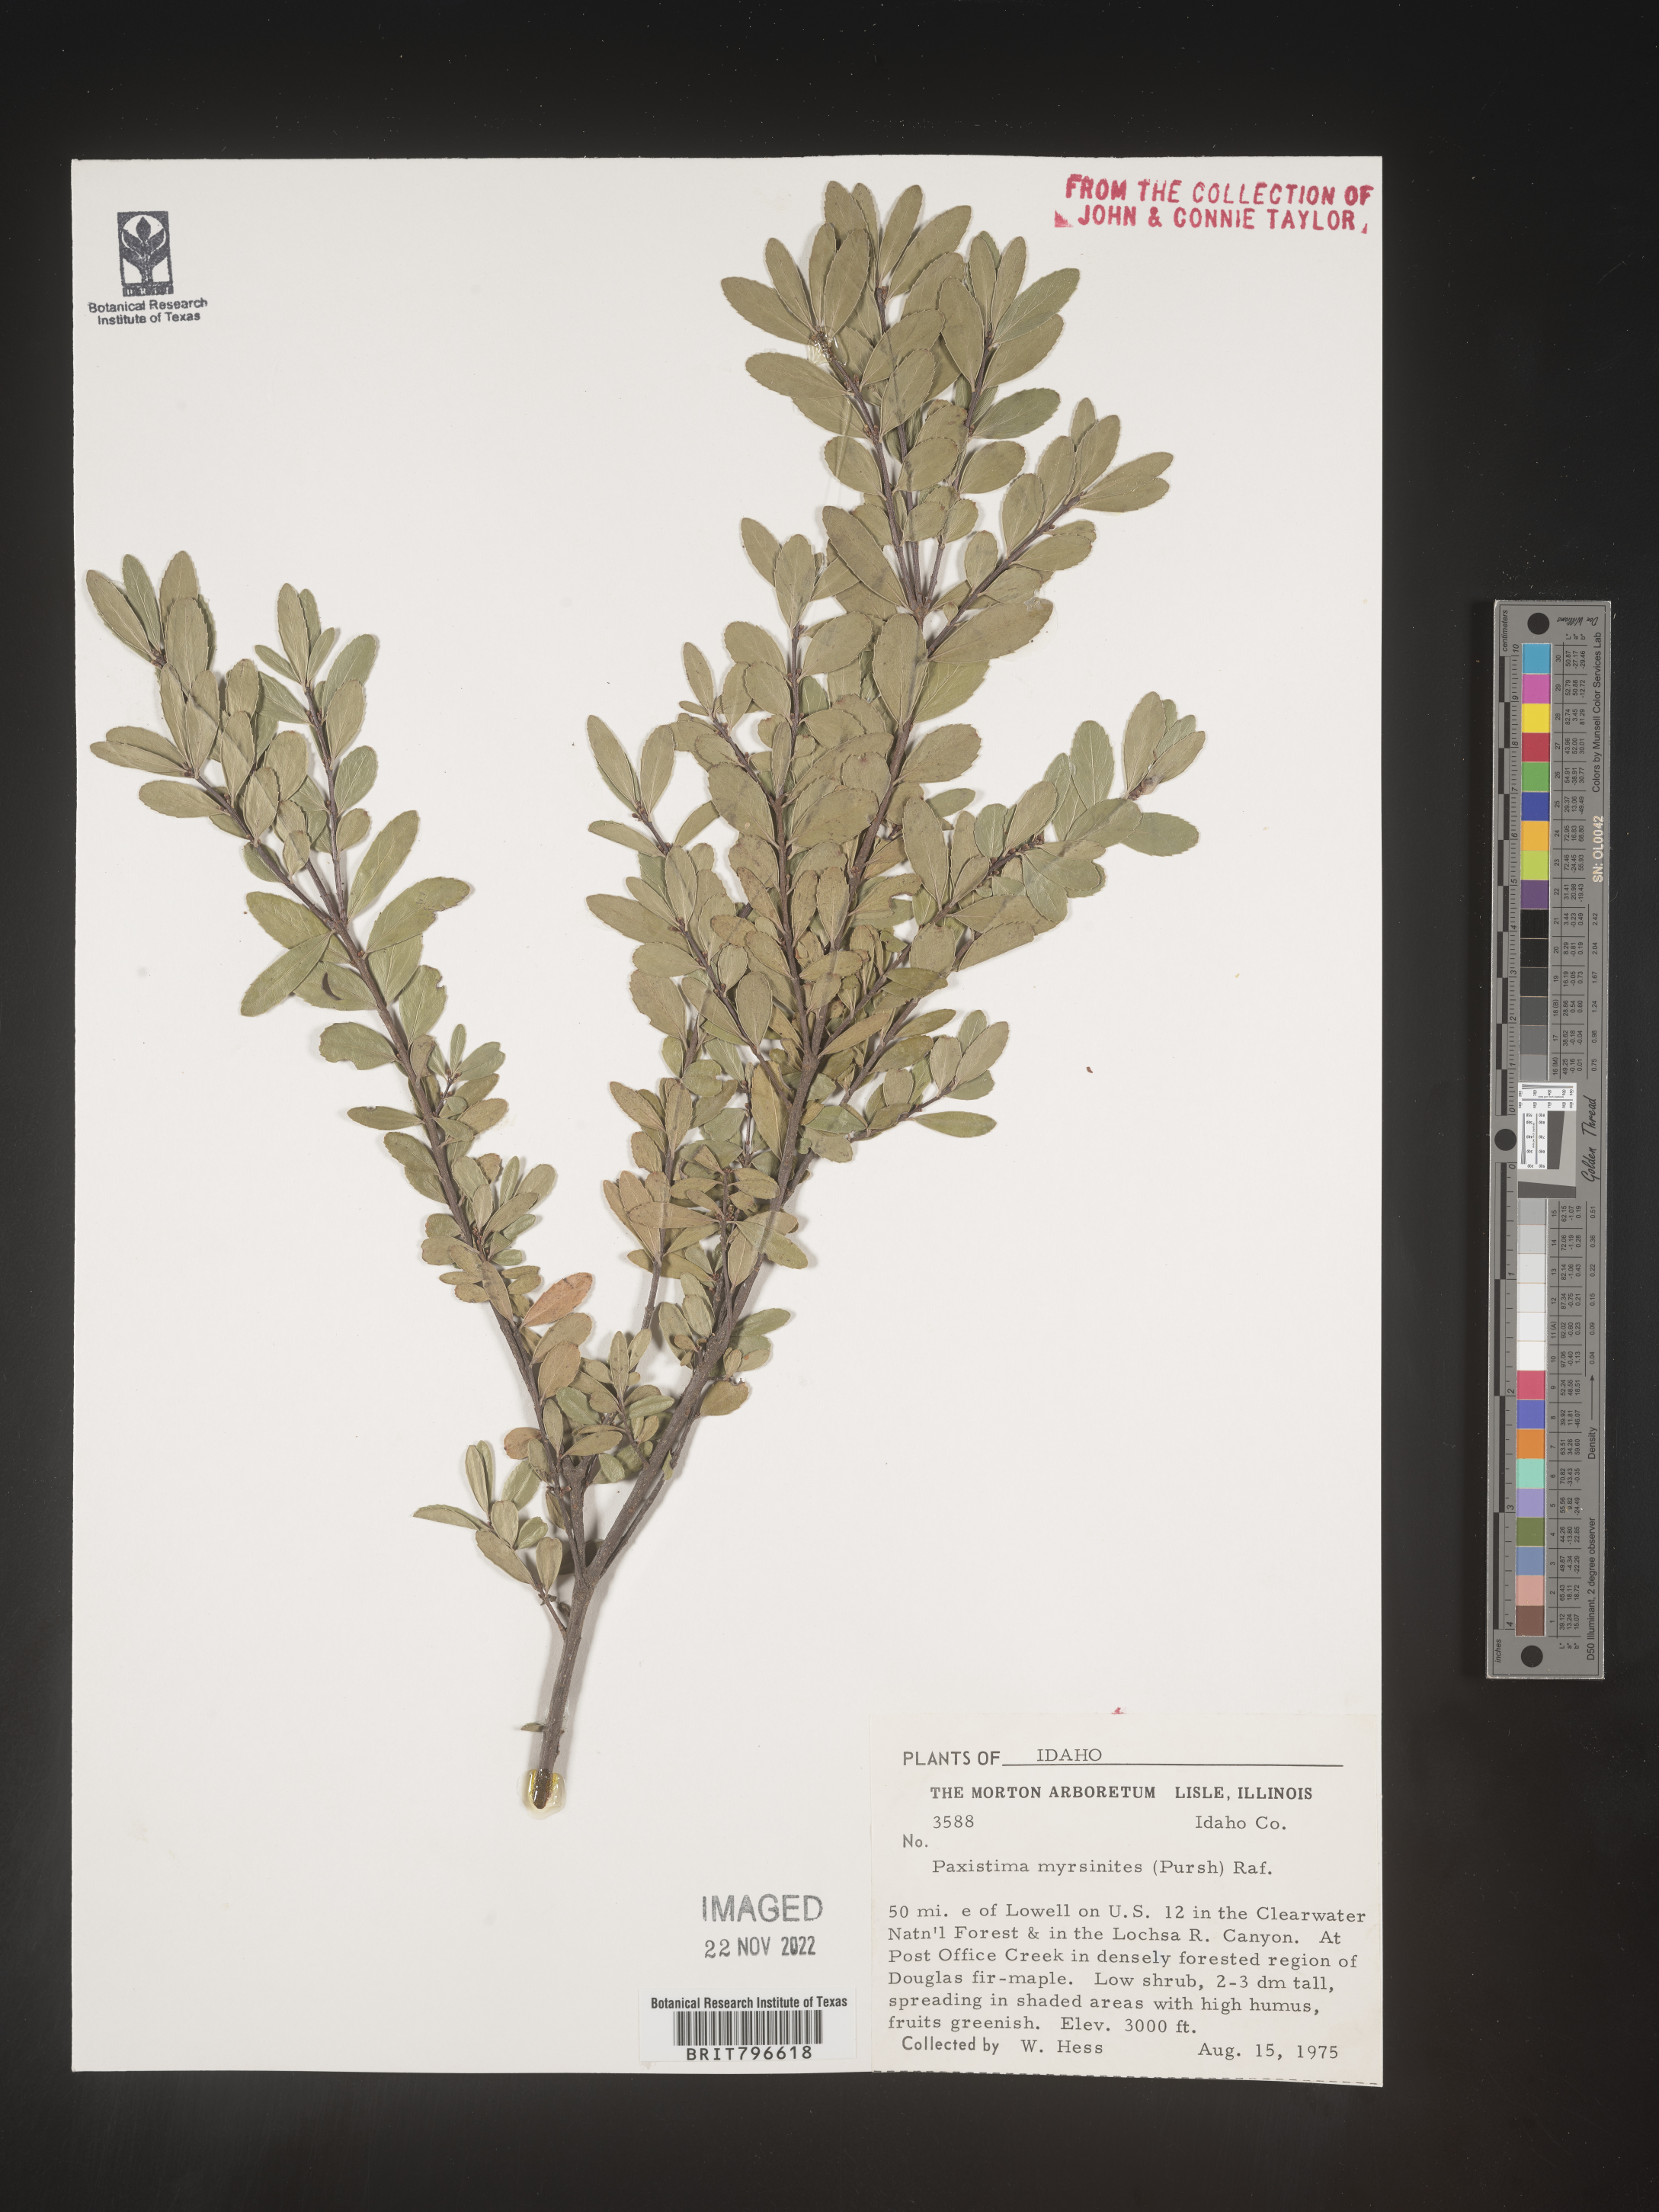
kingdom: Plantae
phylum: Tracheophyta
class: Magnoliopsida
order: Celastrales
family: Celastraceae
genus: Paxistima
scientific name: Paxistima myrsinites
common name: Mountain-lover
